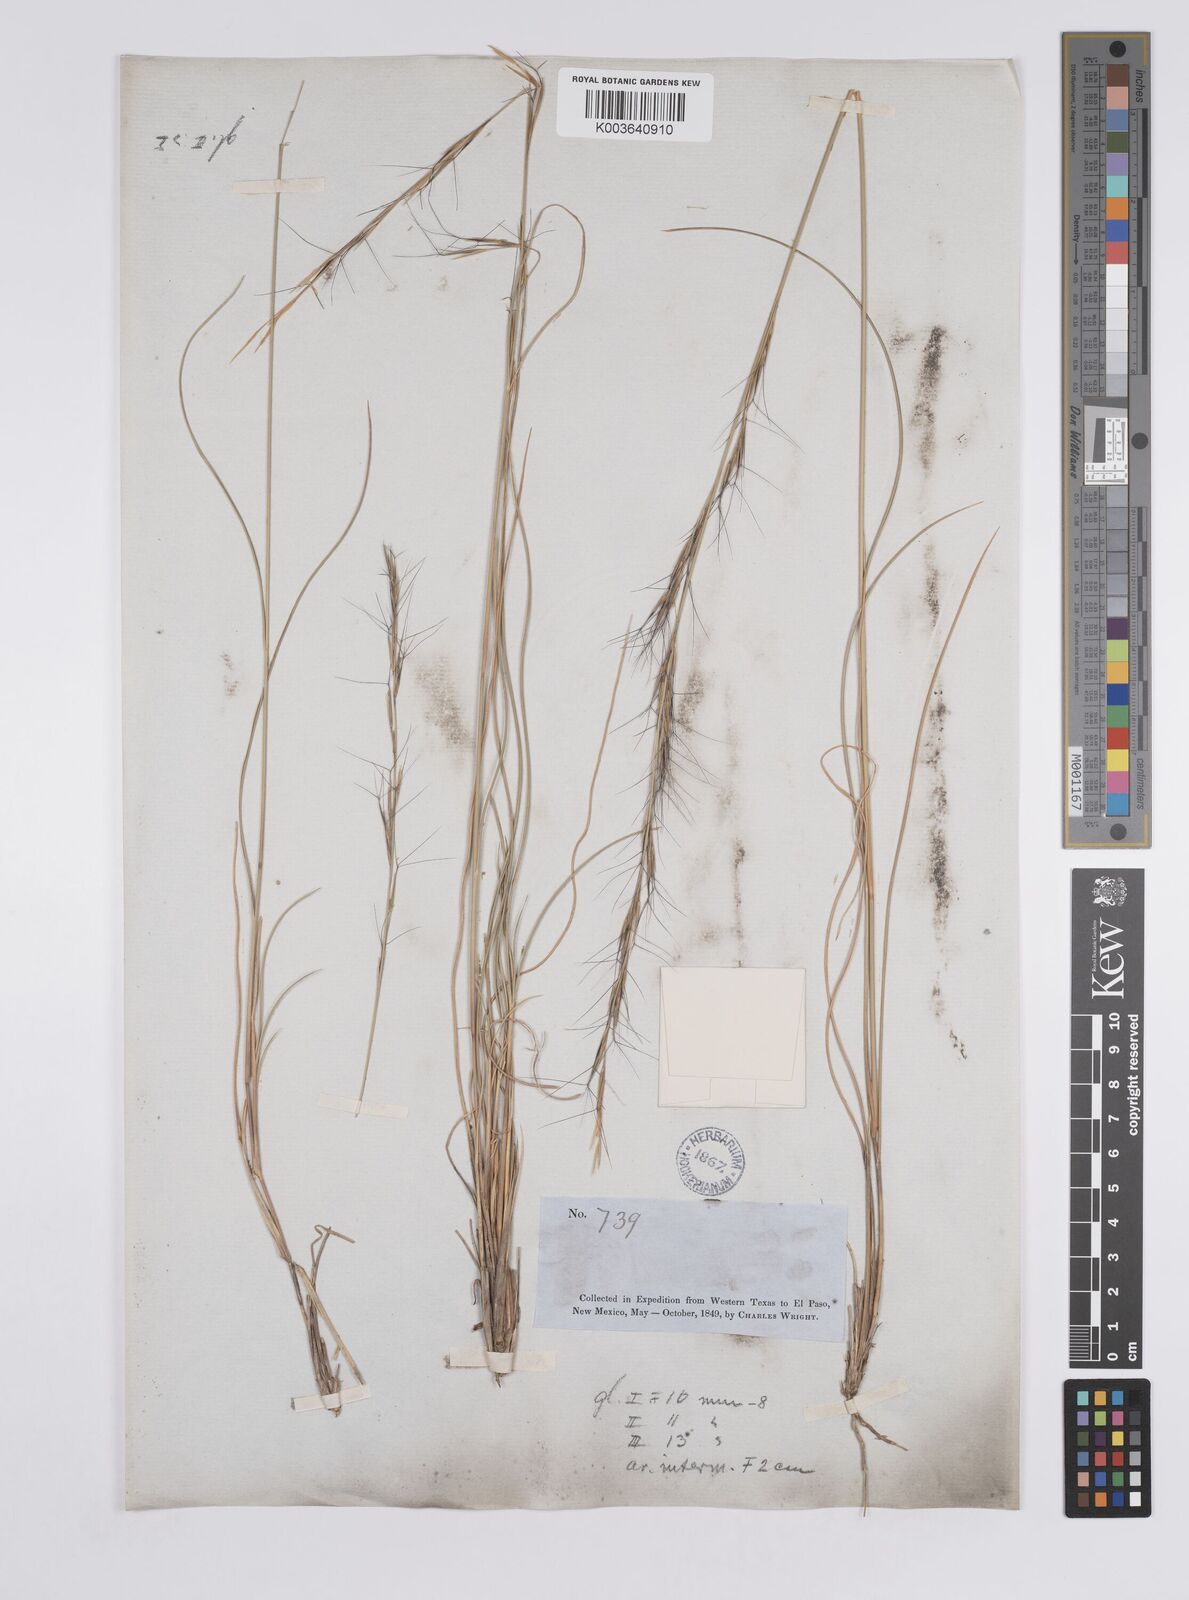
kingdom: Plantae
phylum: Tracheophyta
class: Liliopsida
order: Poales
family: Poaceae
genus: Aristida
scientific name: Aristida purpurea
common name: Purple threeawn
